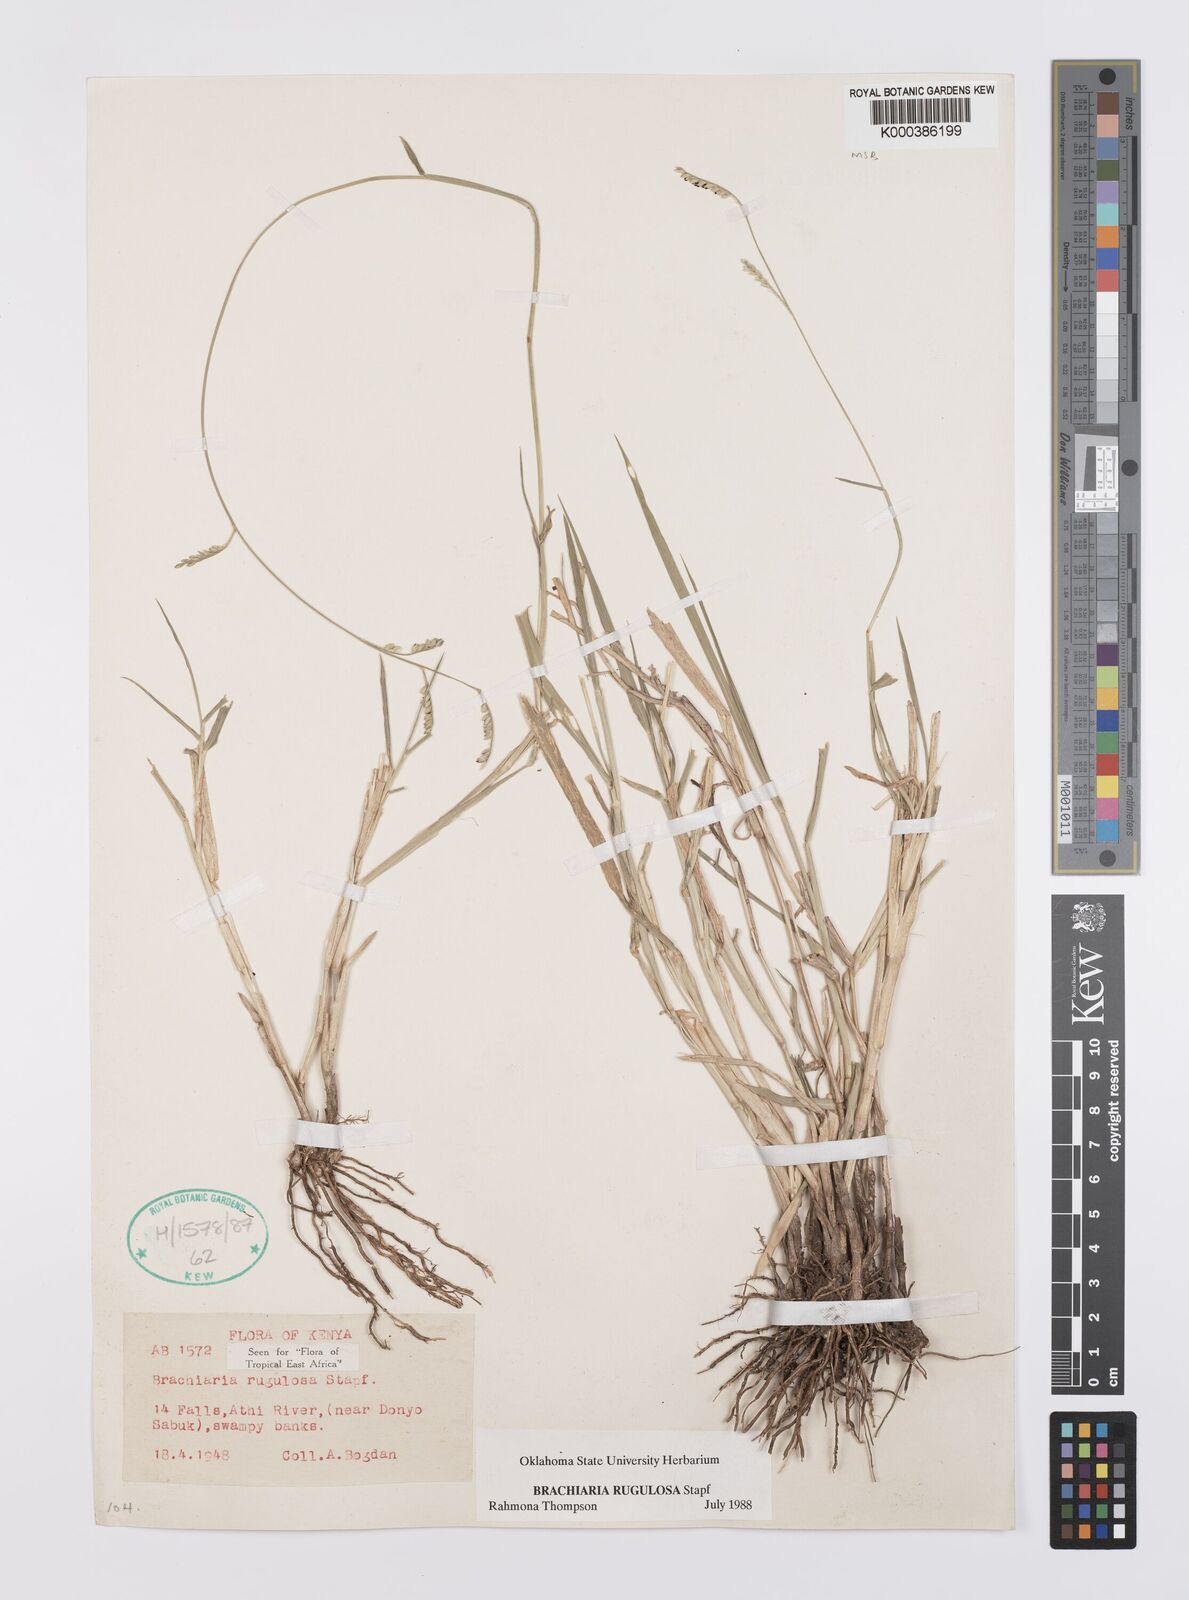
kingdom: Plantae
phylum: Tracheophyta
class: Liliopsida
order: Poales
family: Poaceae
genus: Urochloa
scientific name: Urochloa rugulosa
